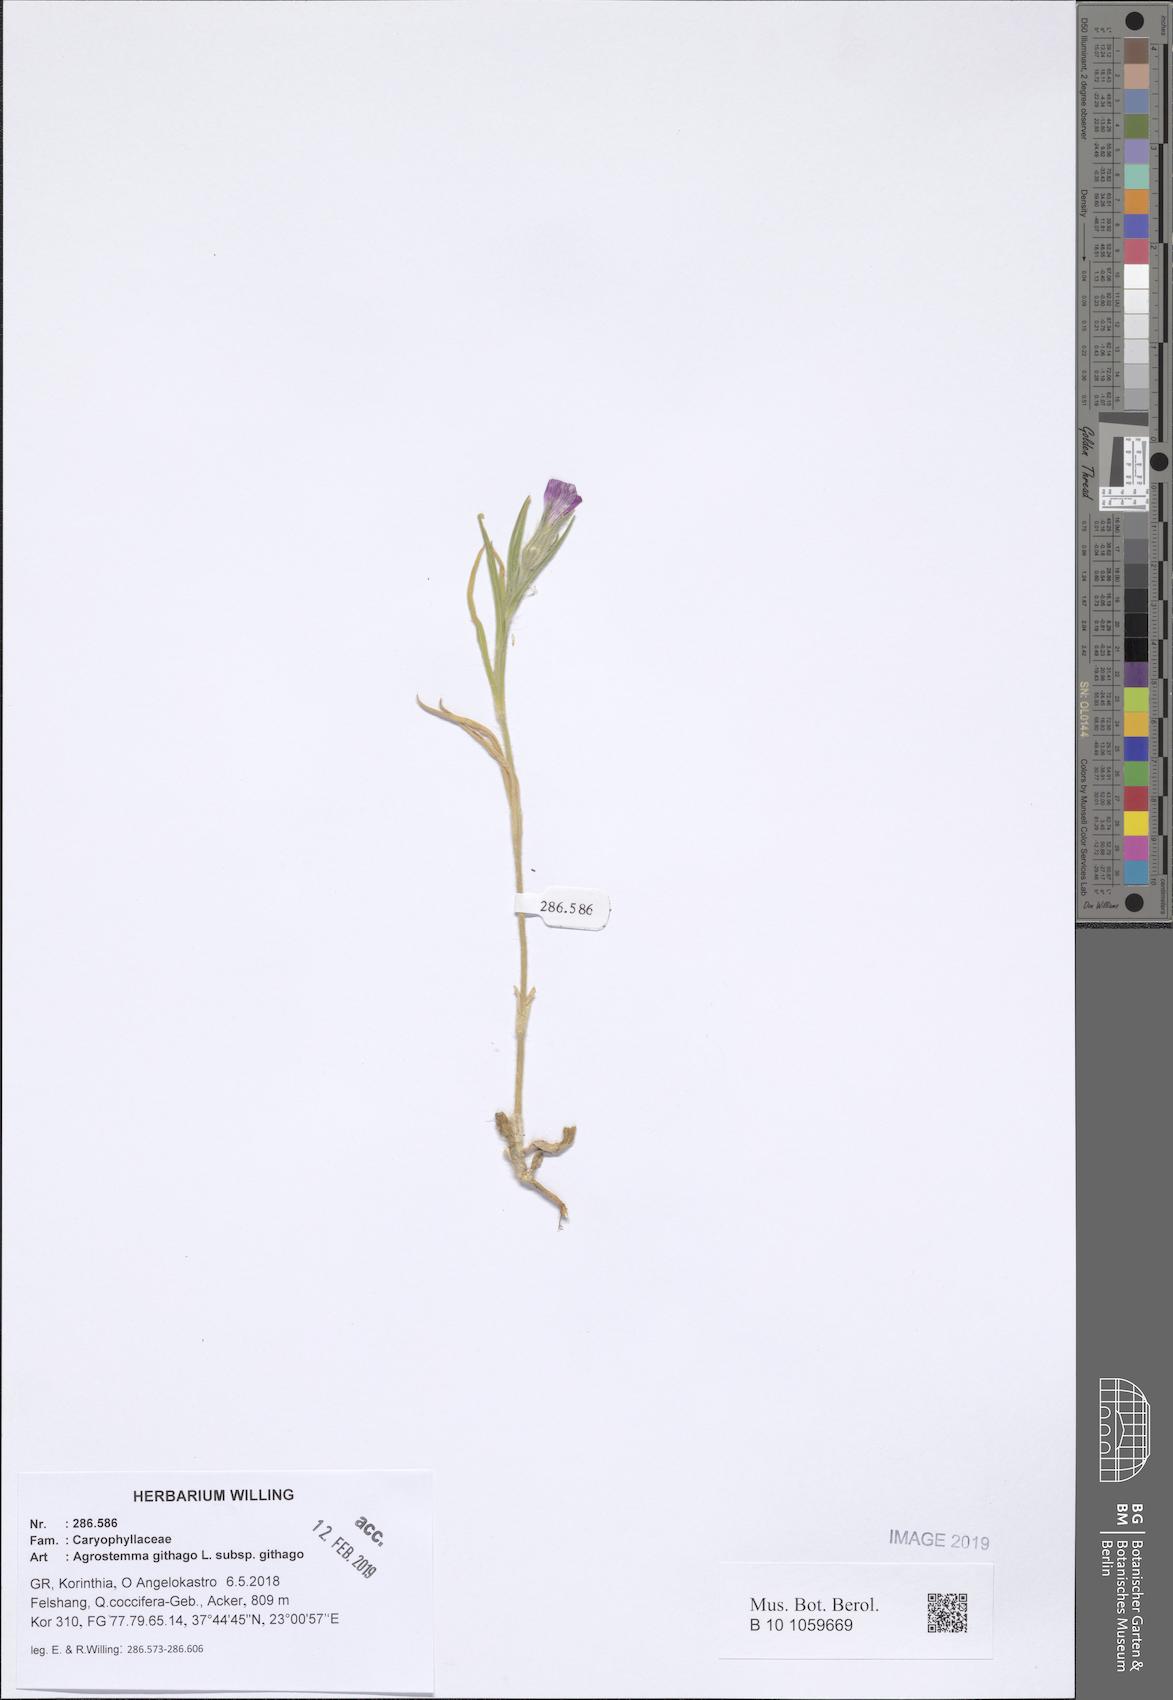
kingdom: Plantae
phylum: Tracheophyta
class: Magnoliopsida
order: Caryophyllales
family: Caryophyllaceae
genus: Agrostemma
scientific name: Agrostemma githago
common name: Common corncockle
